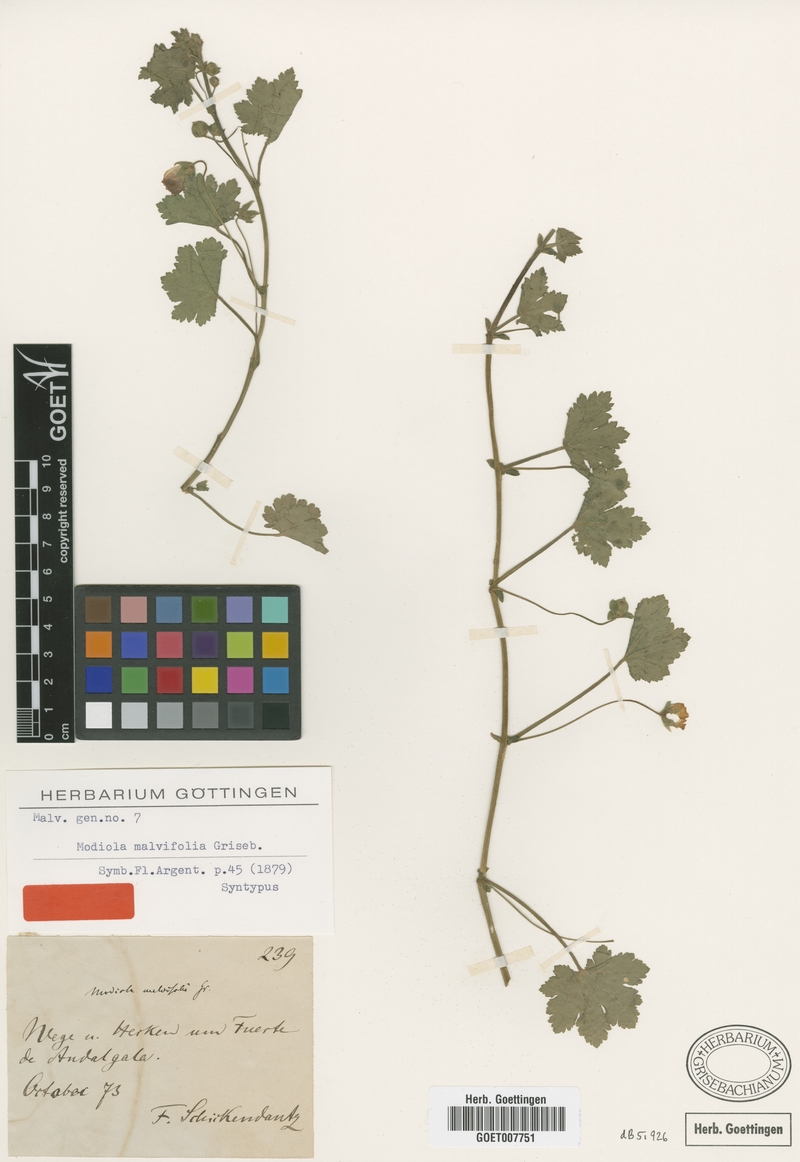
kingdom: Plantae
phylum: Tracheophyta
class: Magnoliopsida
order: Malvales
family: Malvaceae
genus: Modiolastrum
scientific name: Modiolastrum malvifolium
